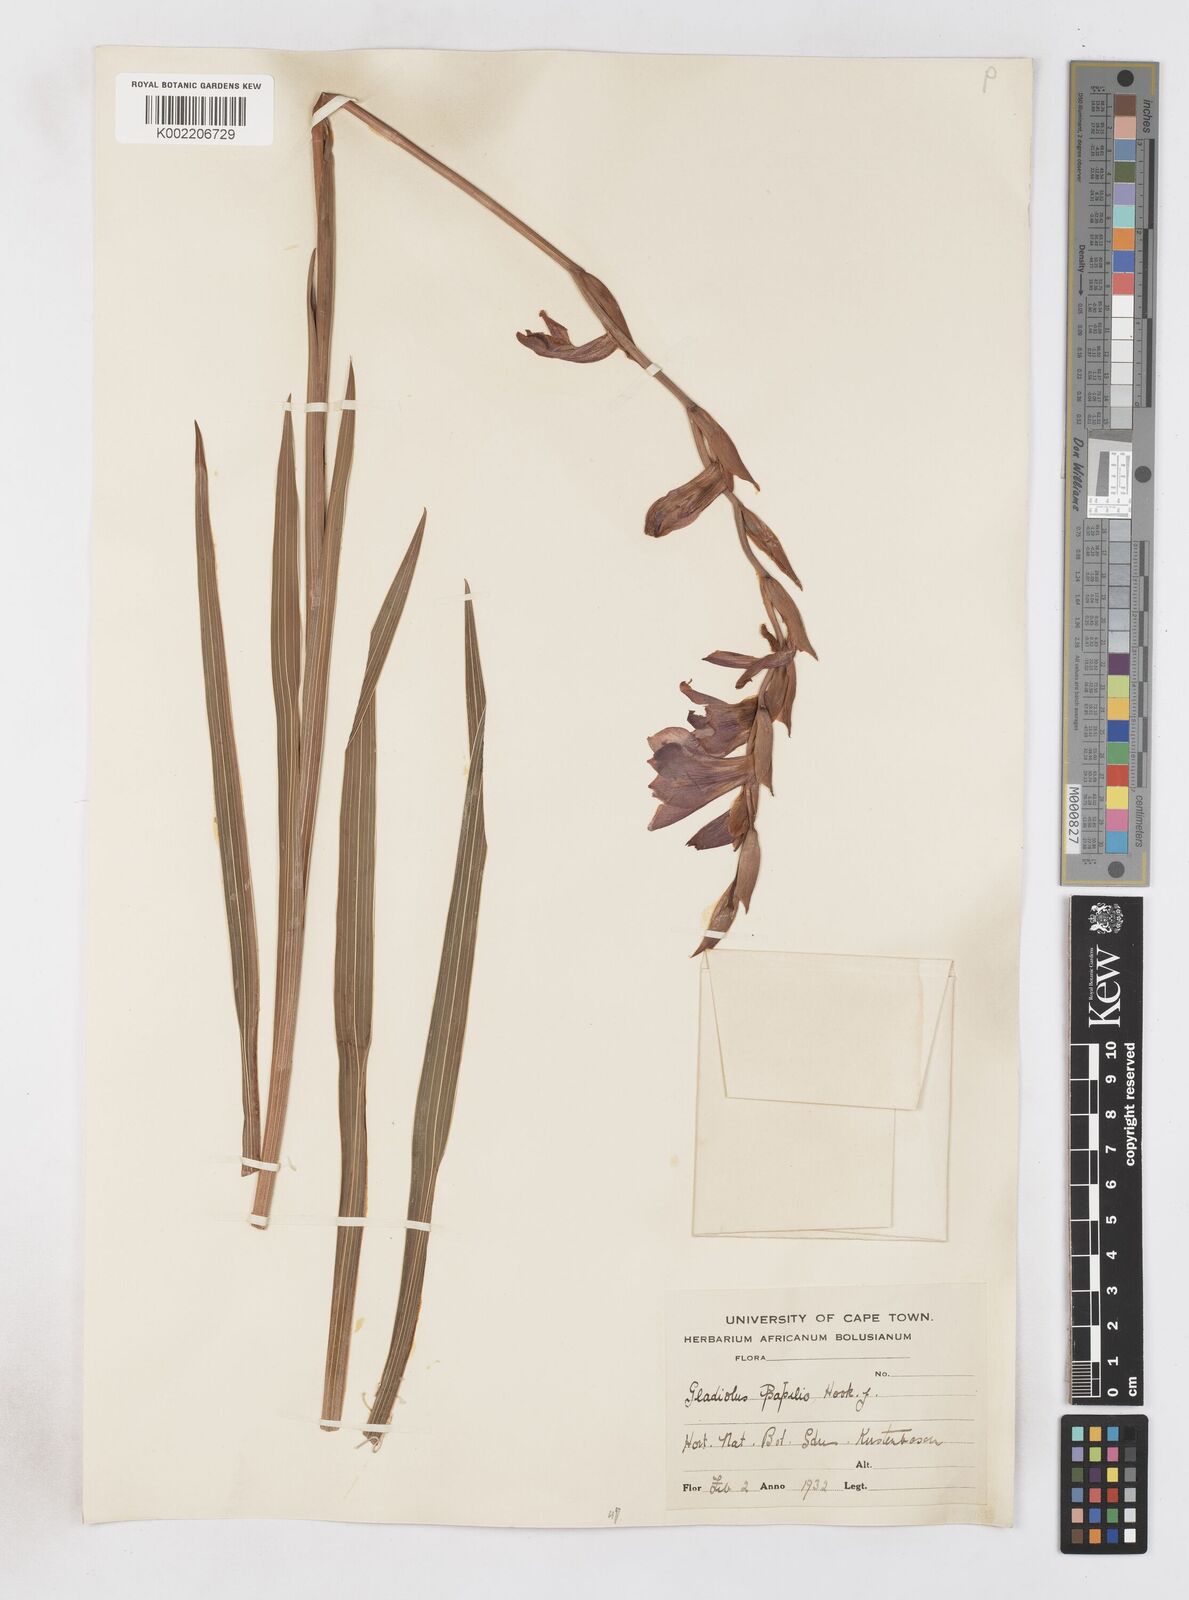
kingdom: Plantae
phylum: Tracheophyta
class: Liliopsida
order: Asparagales
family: Iridaceae
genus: Gladiolus
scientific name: Gladiolus papilio
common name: Goldblotch gladiolus
